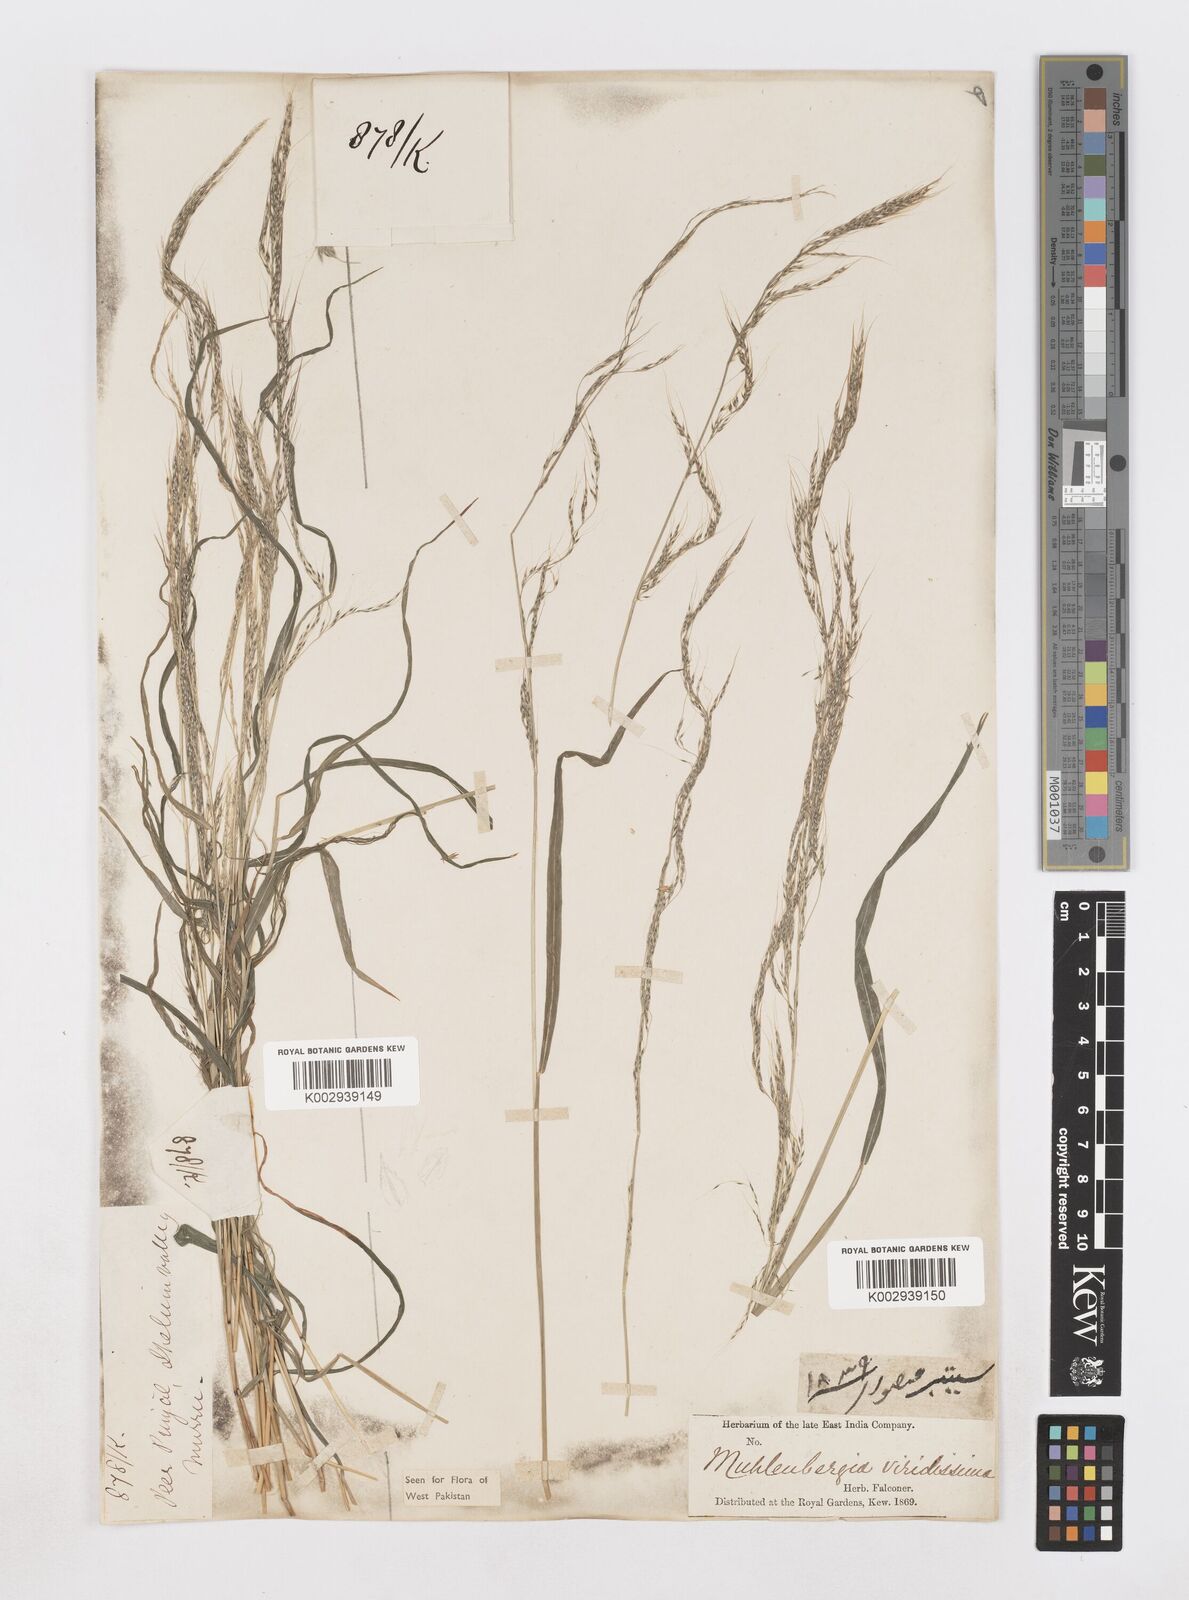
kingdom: Plantae
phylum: Tracheophyta
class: Liliopsida
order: Poales
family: Poaceae
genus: Muhlenbergia
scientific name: Muhlenbergia huegelii
